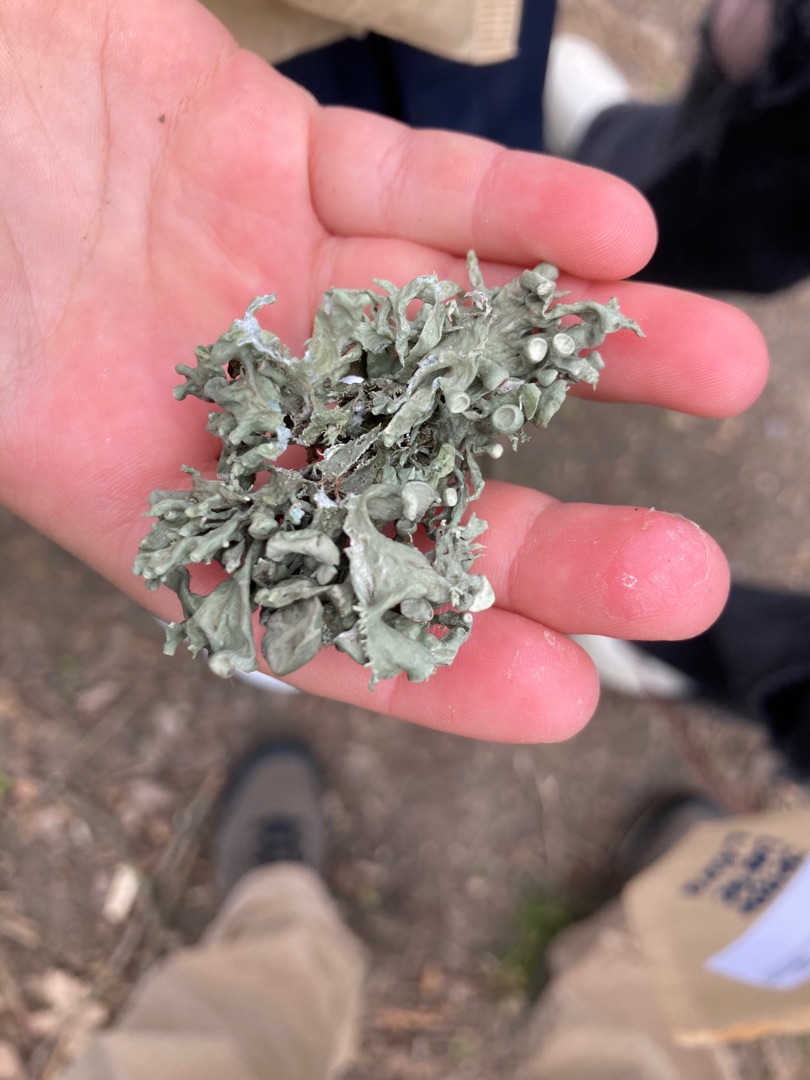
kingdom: Fungi
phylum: Ascomycota
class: Lecanoromycetes
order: Lecanorales
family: Ramalinaceae
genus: Ramalina
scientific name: Ramalina fastigiata
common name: Tue-grenlav
